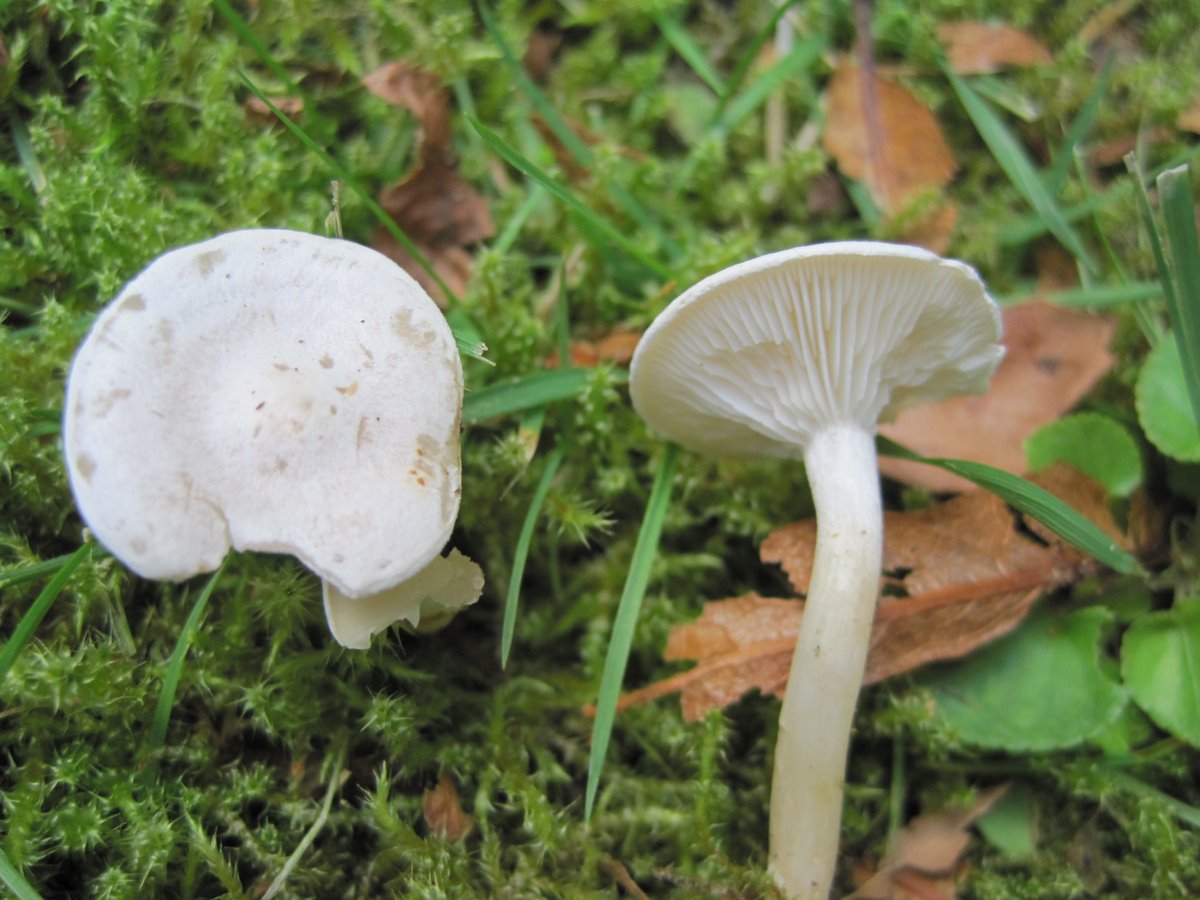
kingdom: Fungi
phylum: Basidiomycota
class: Agaricomycetes
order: Agaricales
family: Tricholomataceae
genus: Leucocybe
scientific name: Leucocybe candicans
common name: kridt-tragthat
